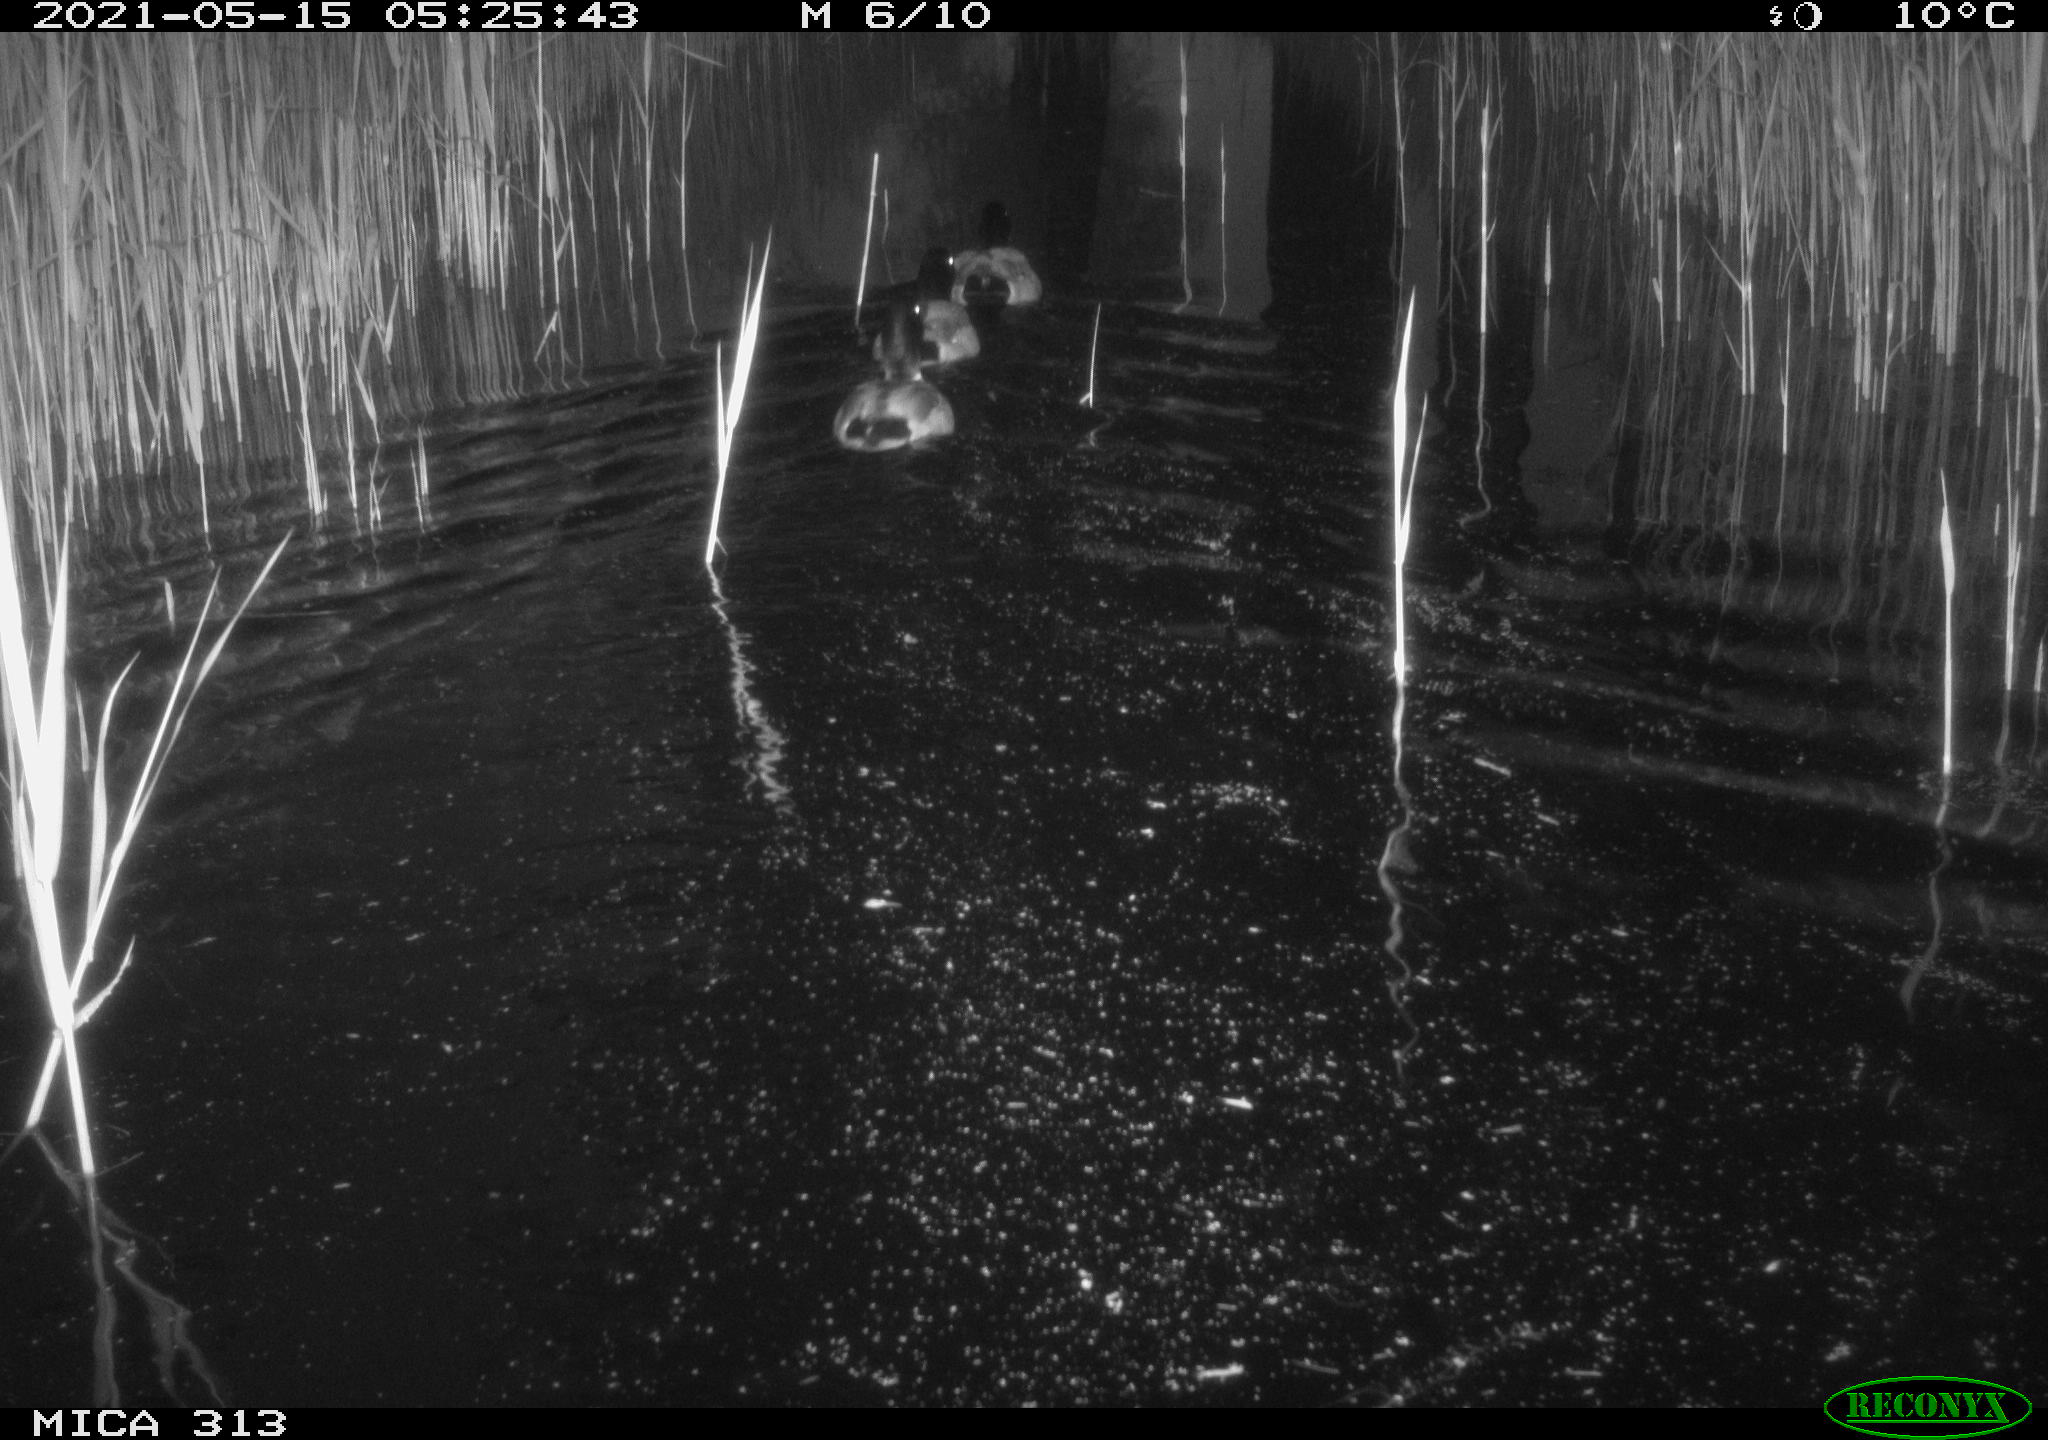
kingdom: Animalia
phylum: Chordata
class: Aves
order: Anseriformes
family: Anatidae
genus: Anas
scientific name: Anas platyrhynchos
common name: Mallard
